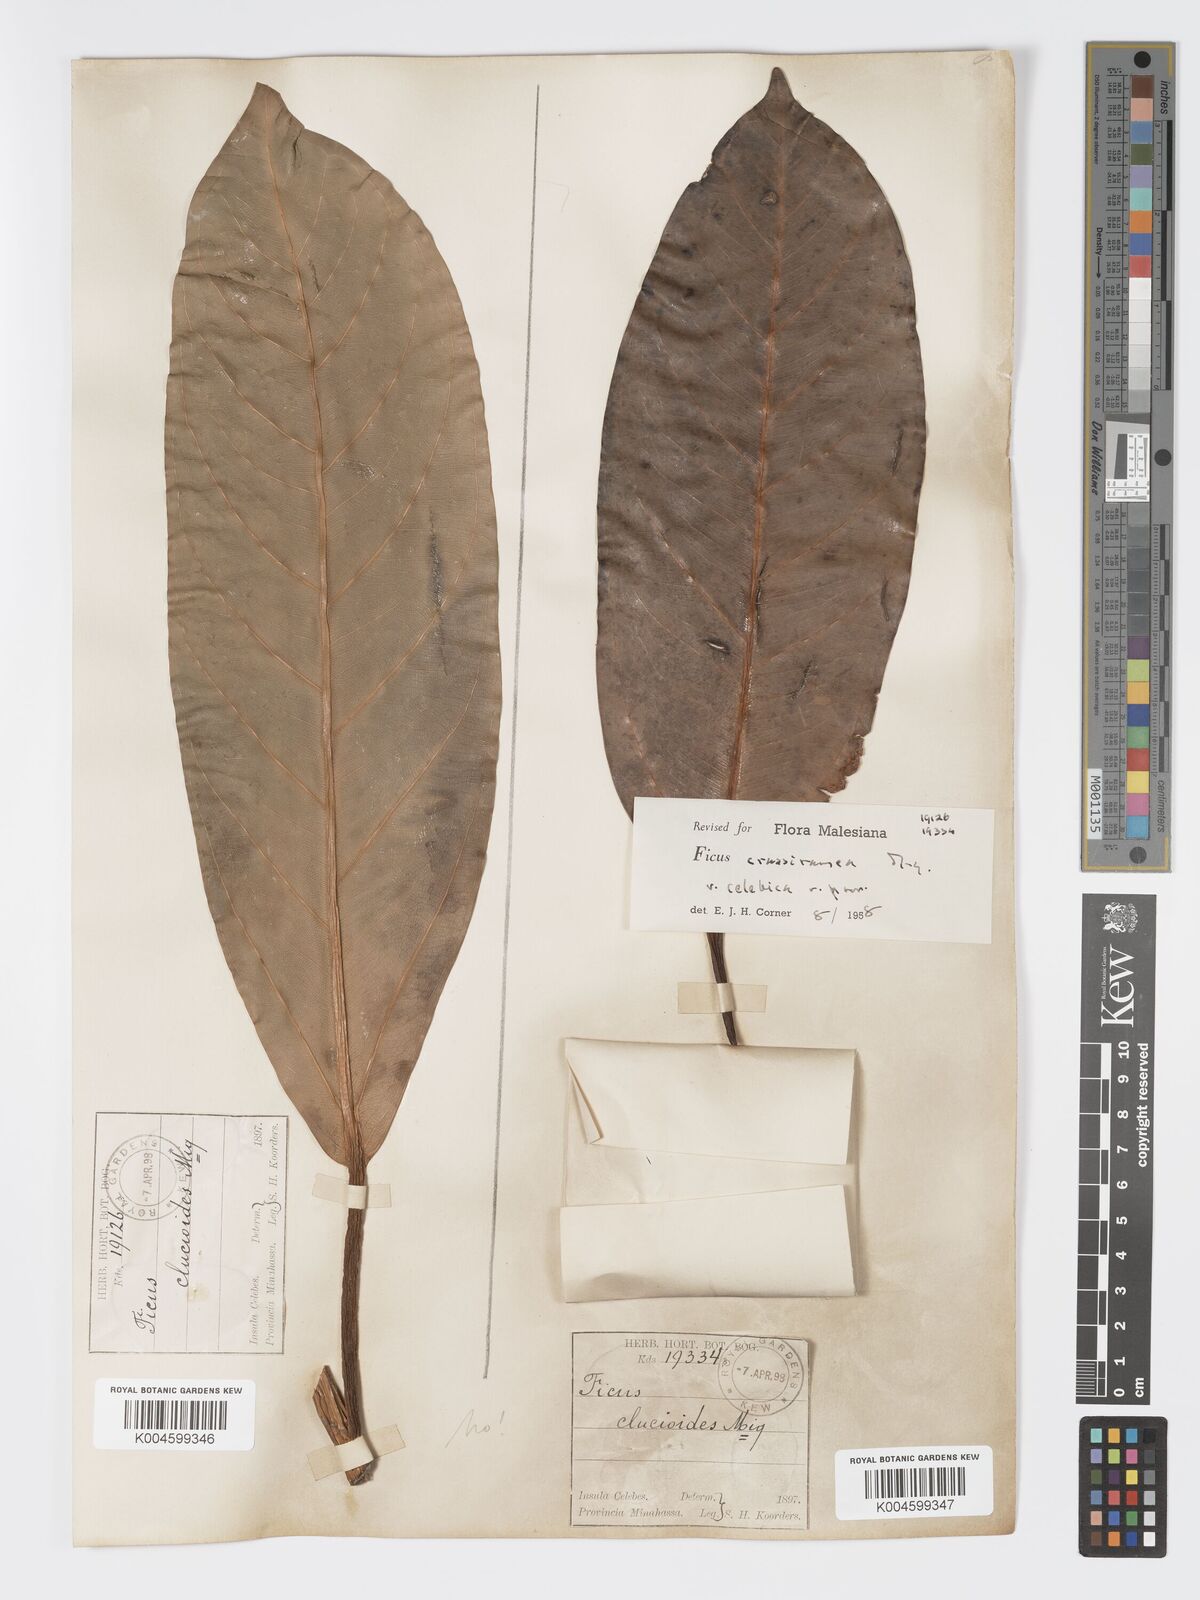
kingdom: Plantae
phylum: Tracheophyta
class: Magnoliopsida
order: Rosales
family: Moraceae
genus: Ficus
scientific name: Ficus crassiramea
